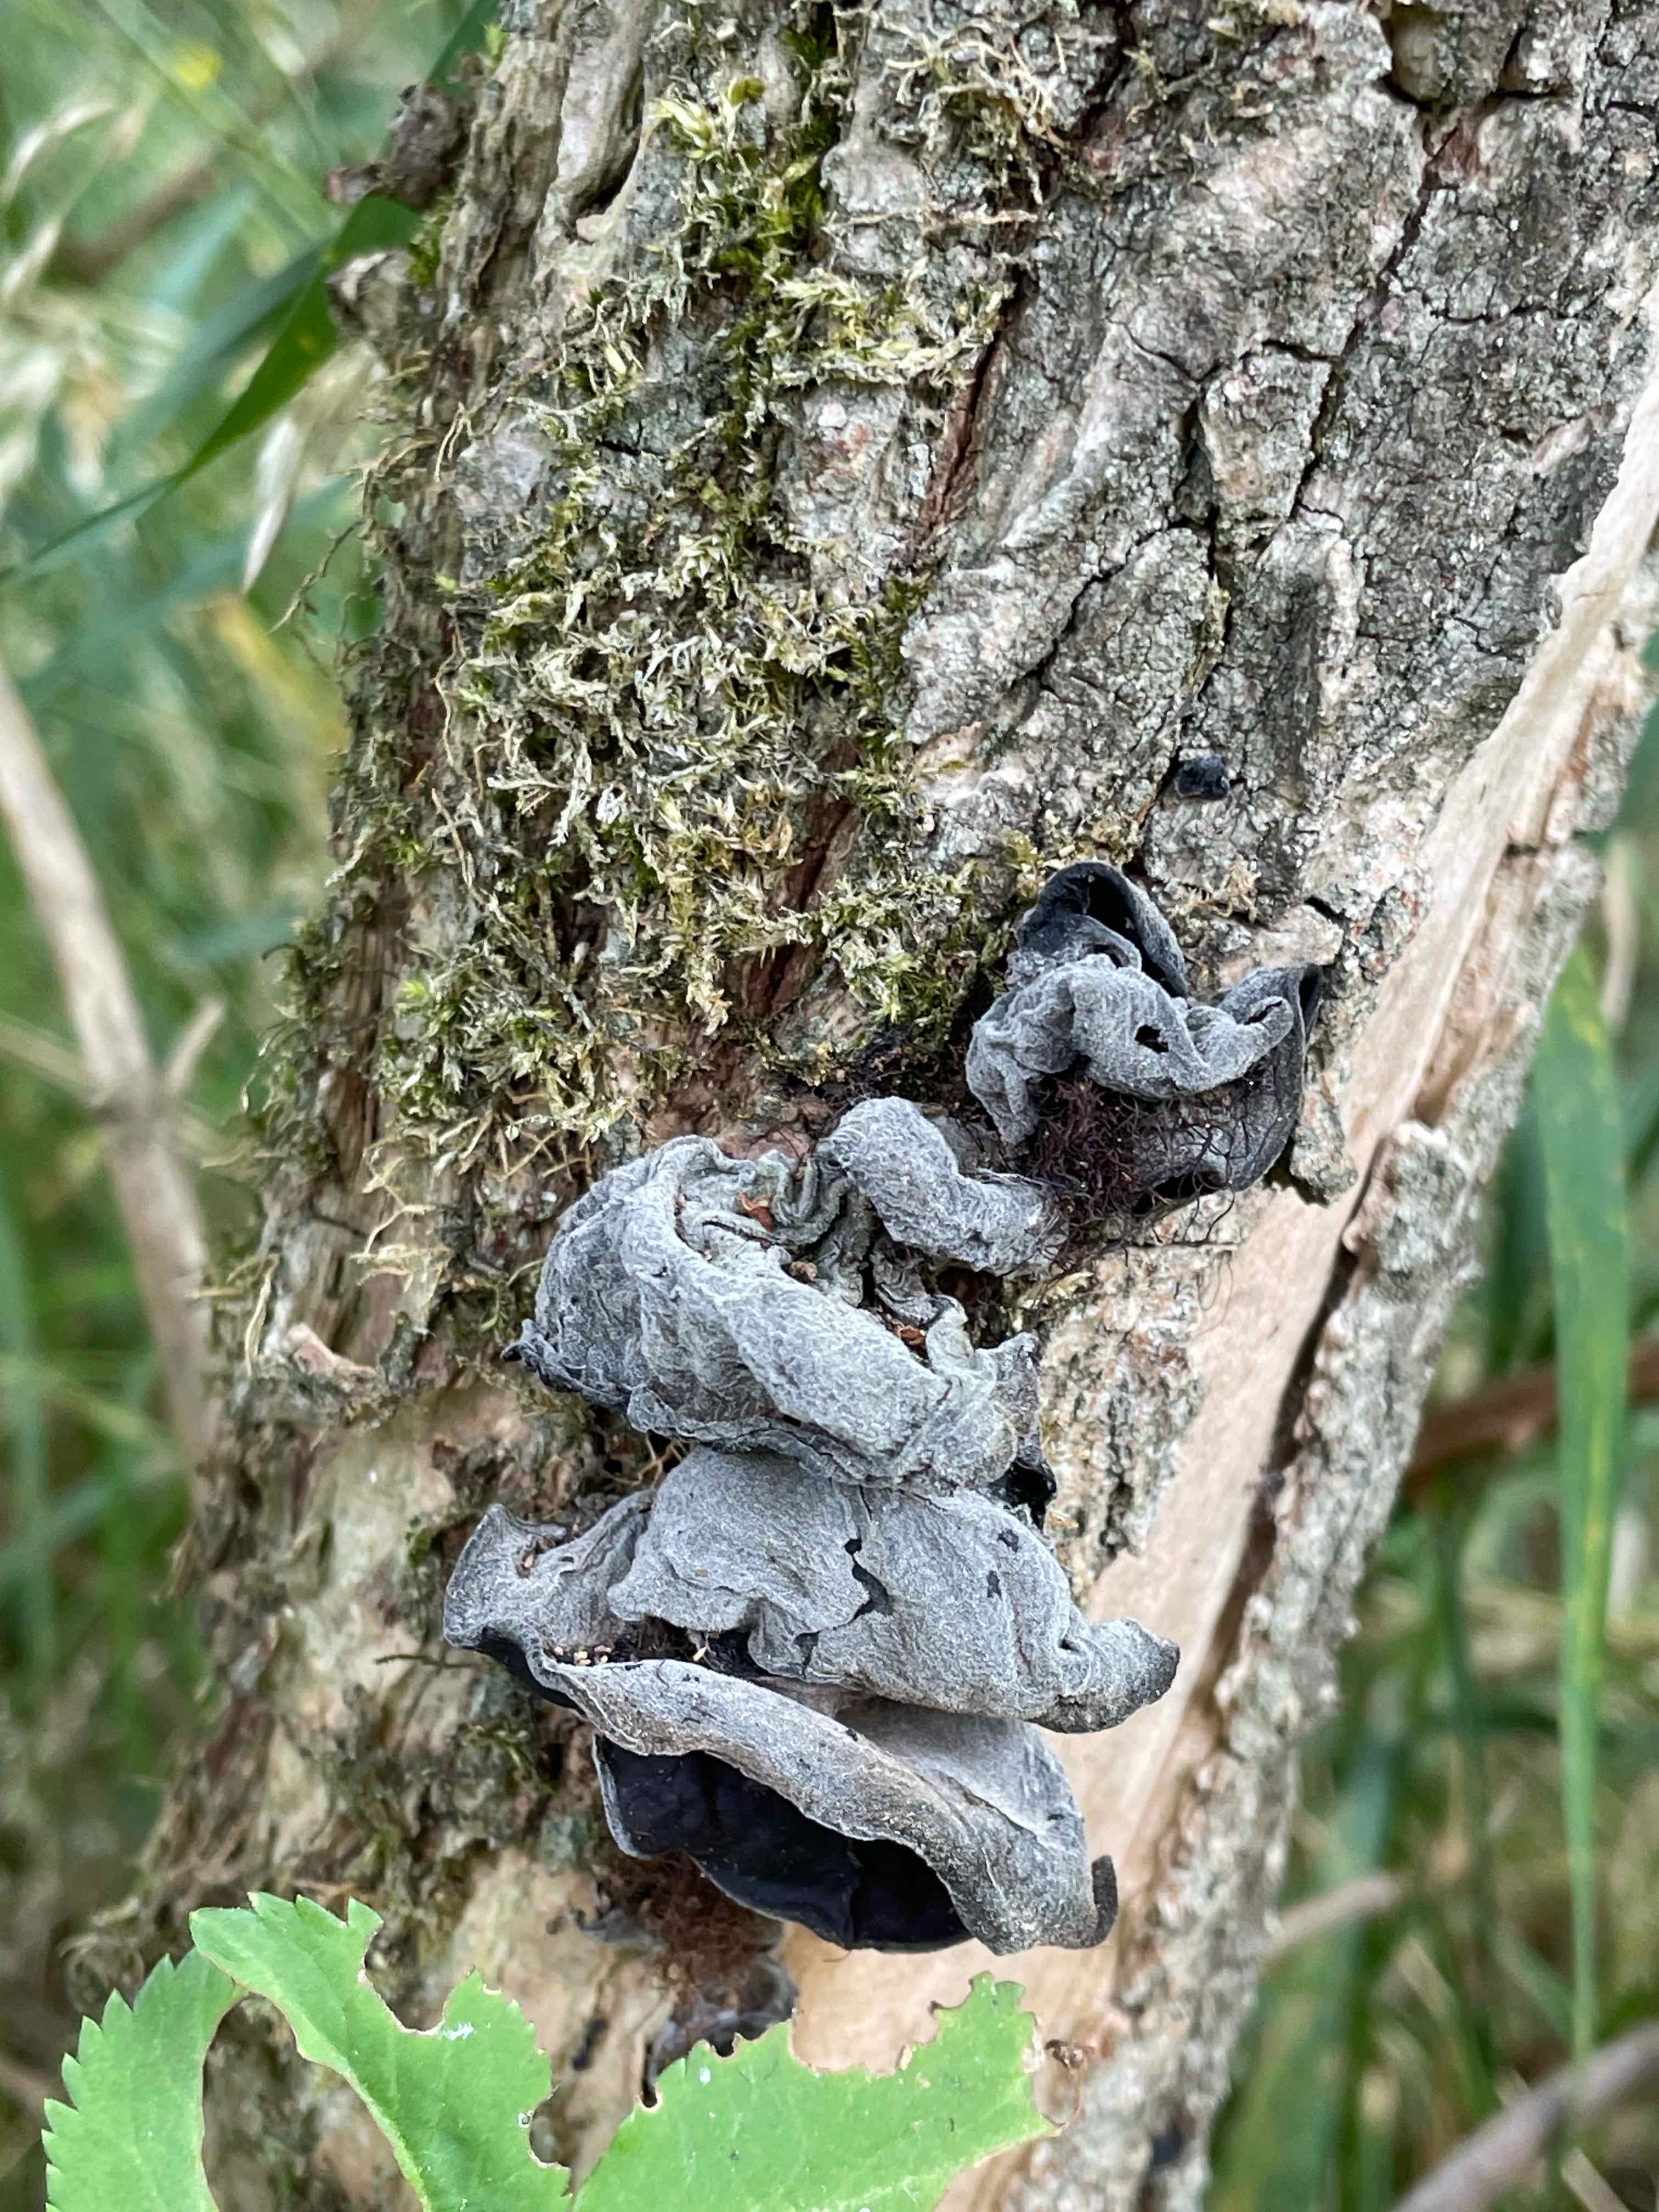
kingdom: Fungi
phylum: Basidiomycota
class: Agaricomycetes
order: Auriculariales
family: Auriculariaceae
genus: Auricularia
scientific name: Auricularia auricula-judae
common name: almindelig judasøre
